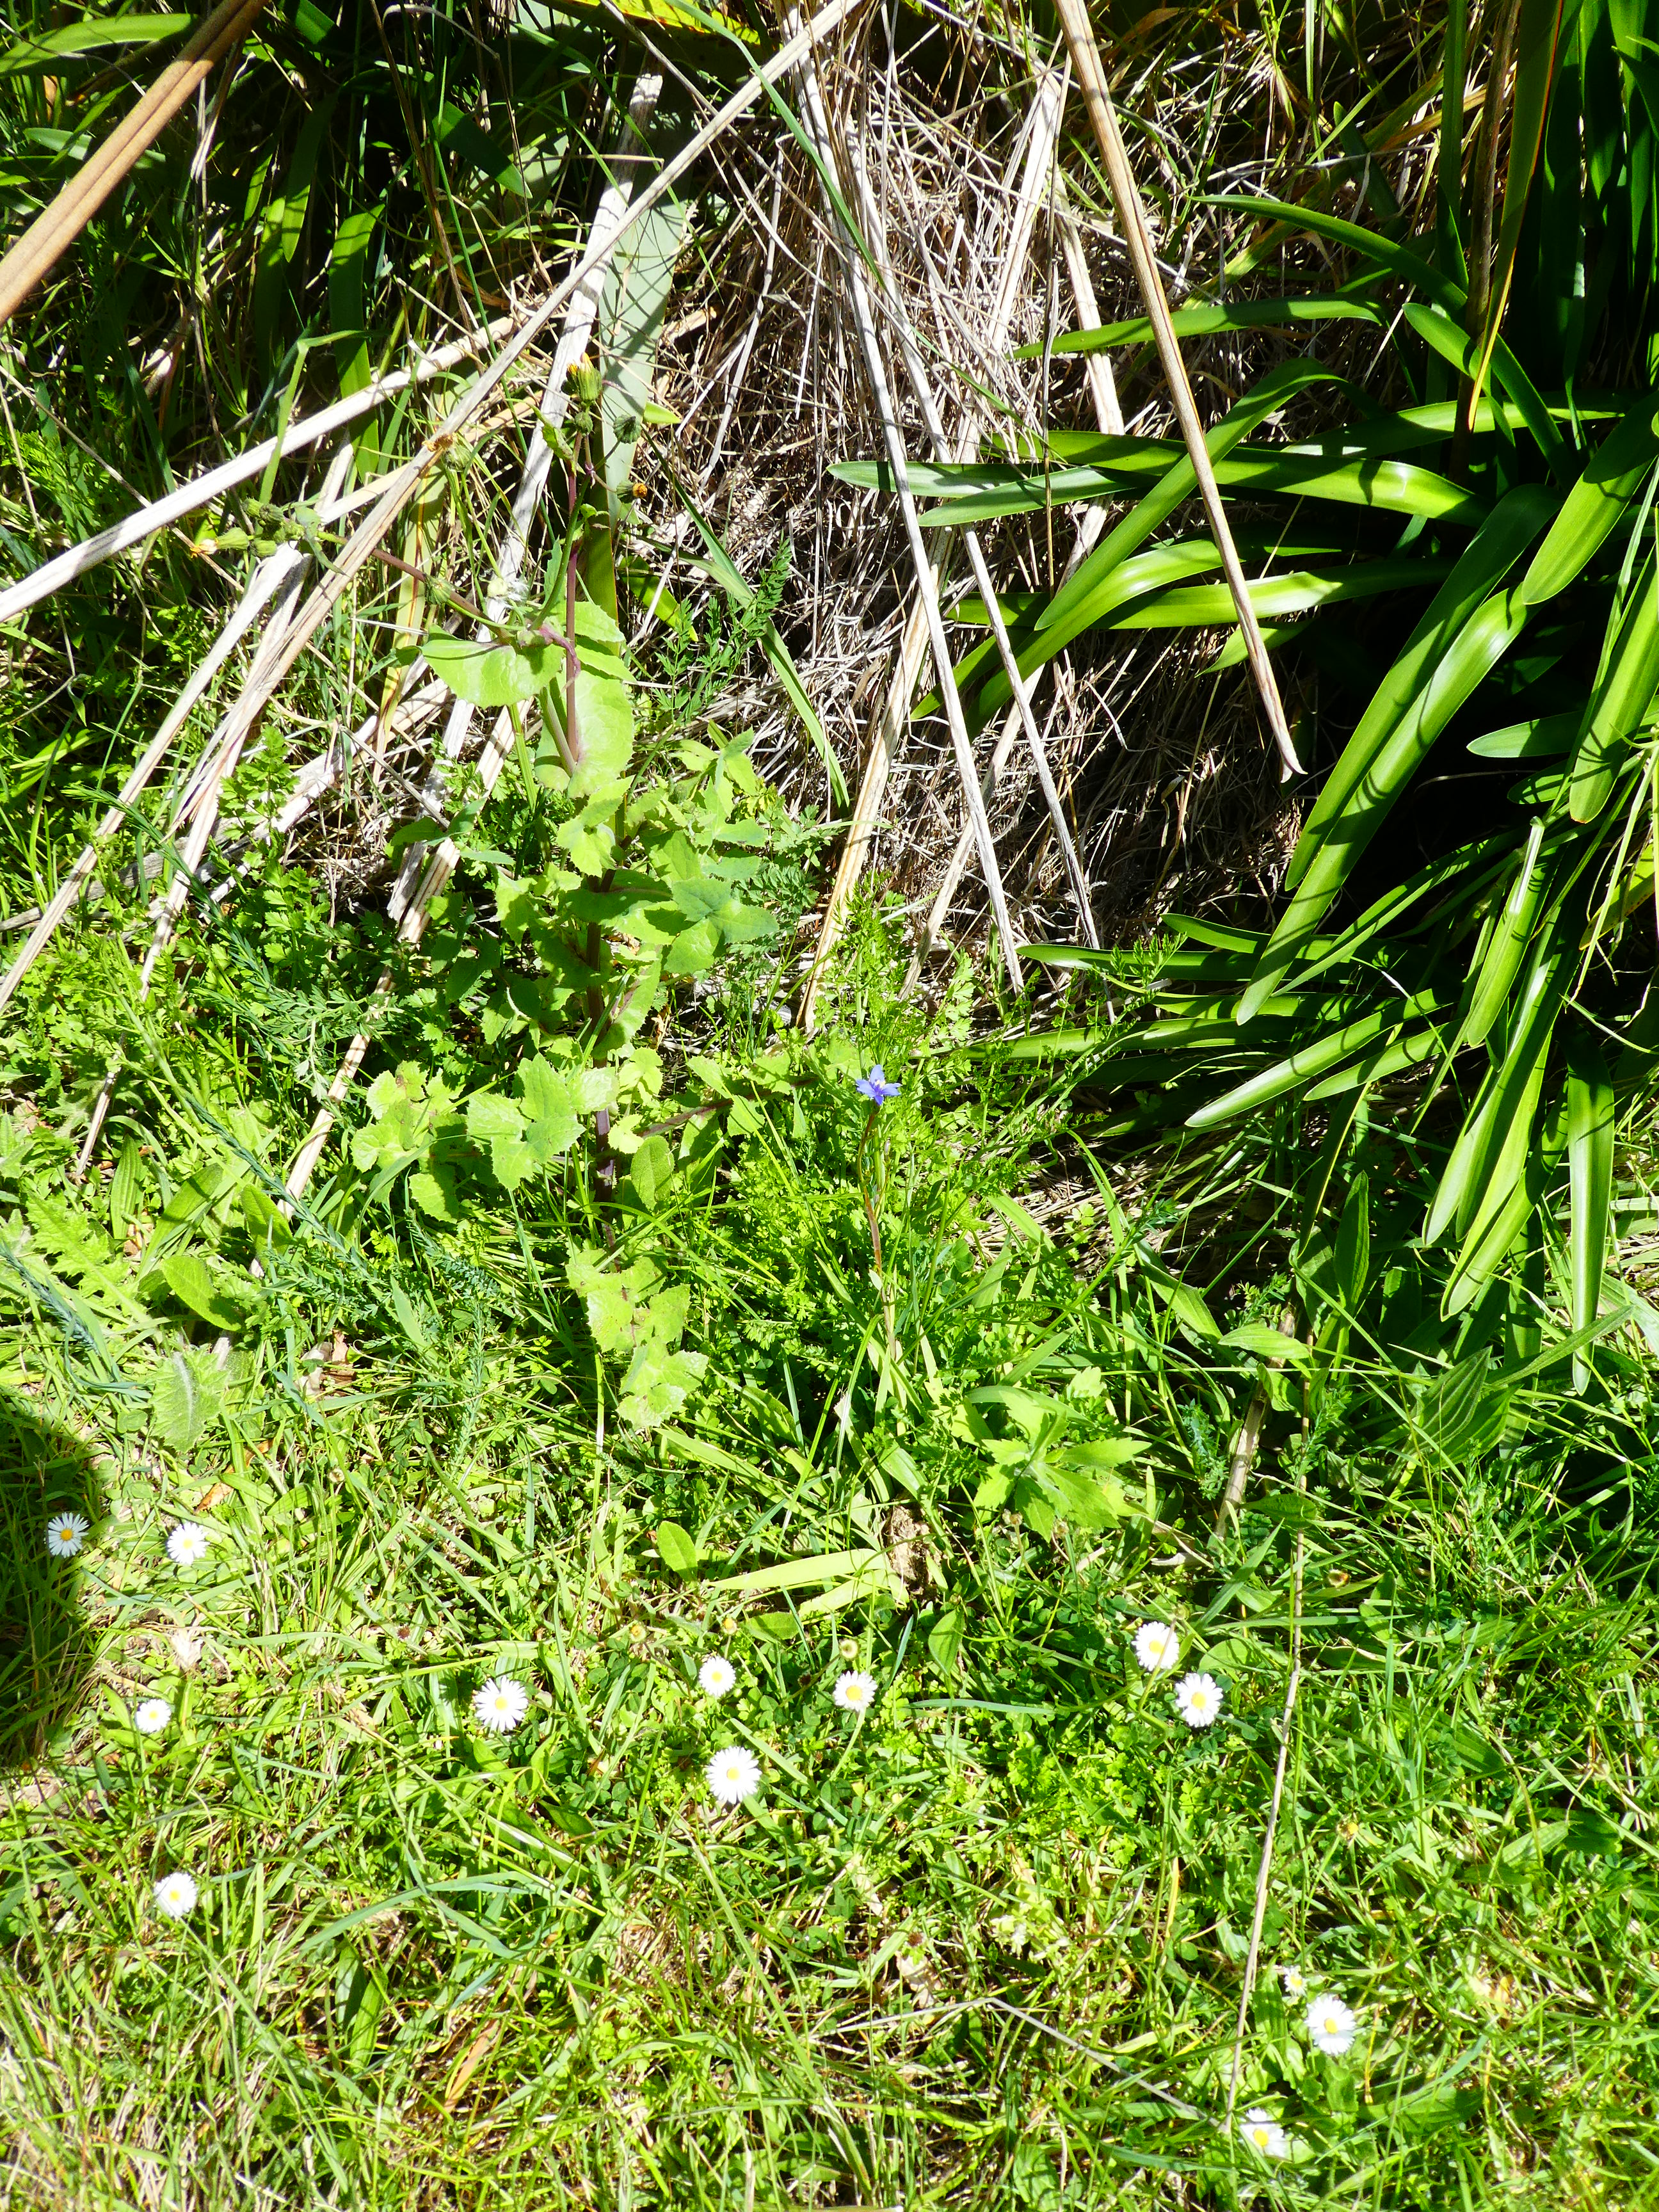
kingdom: Plantae
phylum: Tracheophyta
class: Liliopsida
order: Asparagales
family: Iridaceae
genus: Aristea
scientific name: Aristea ecklonii
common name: Blue corn-lily
